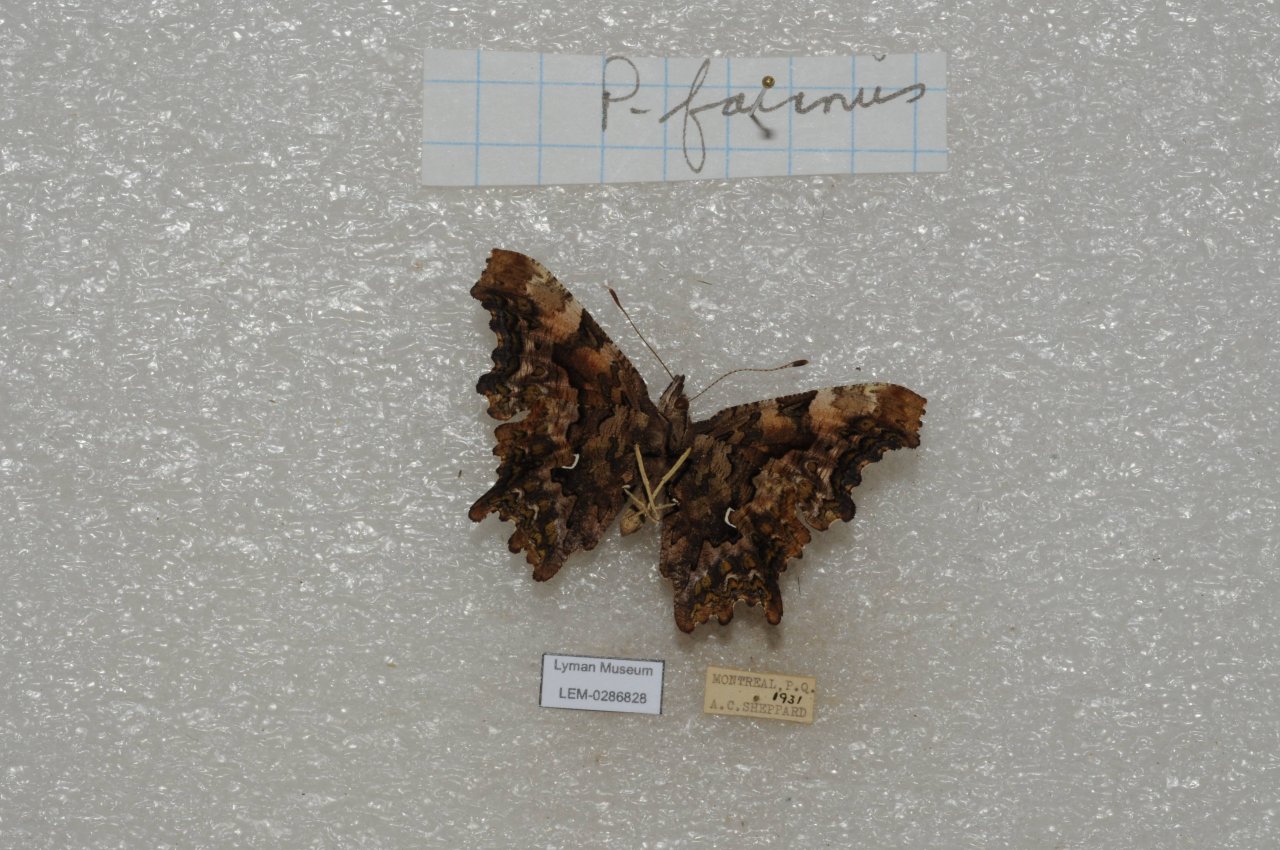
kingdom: Animalia
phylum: Arthropoda
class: Insecta
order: Lepidoptera
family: Nymphalidae
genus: Polygonia
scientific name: Polygonia faunus
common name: Green Comma
